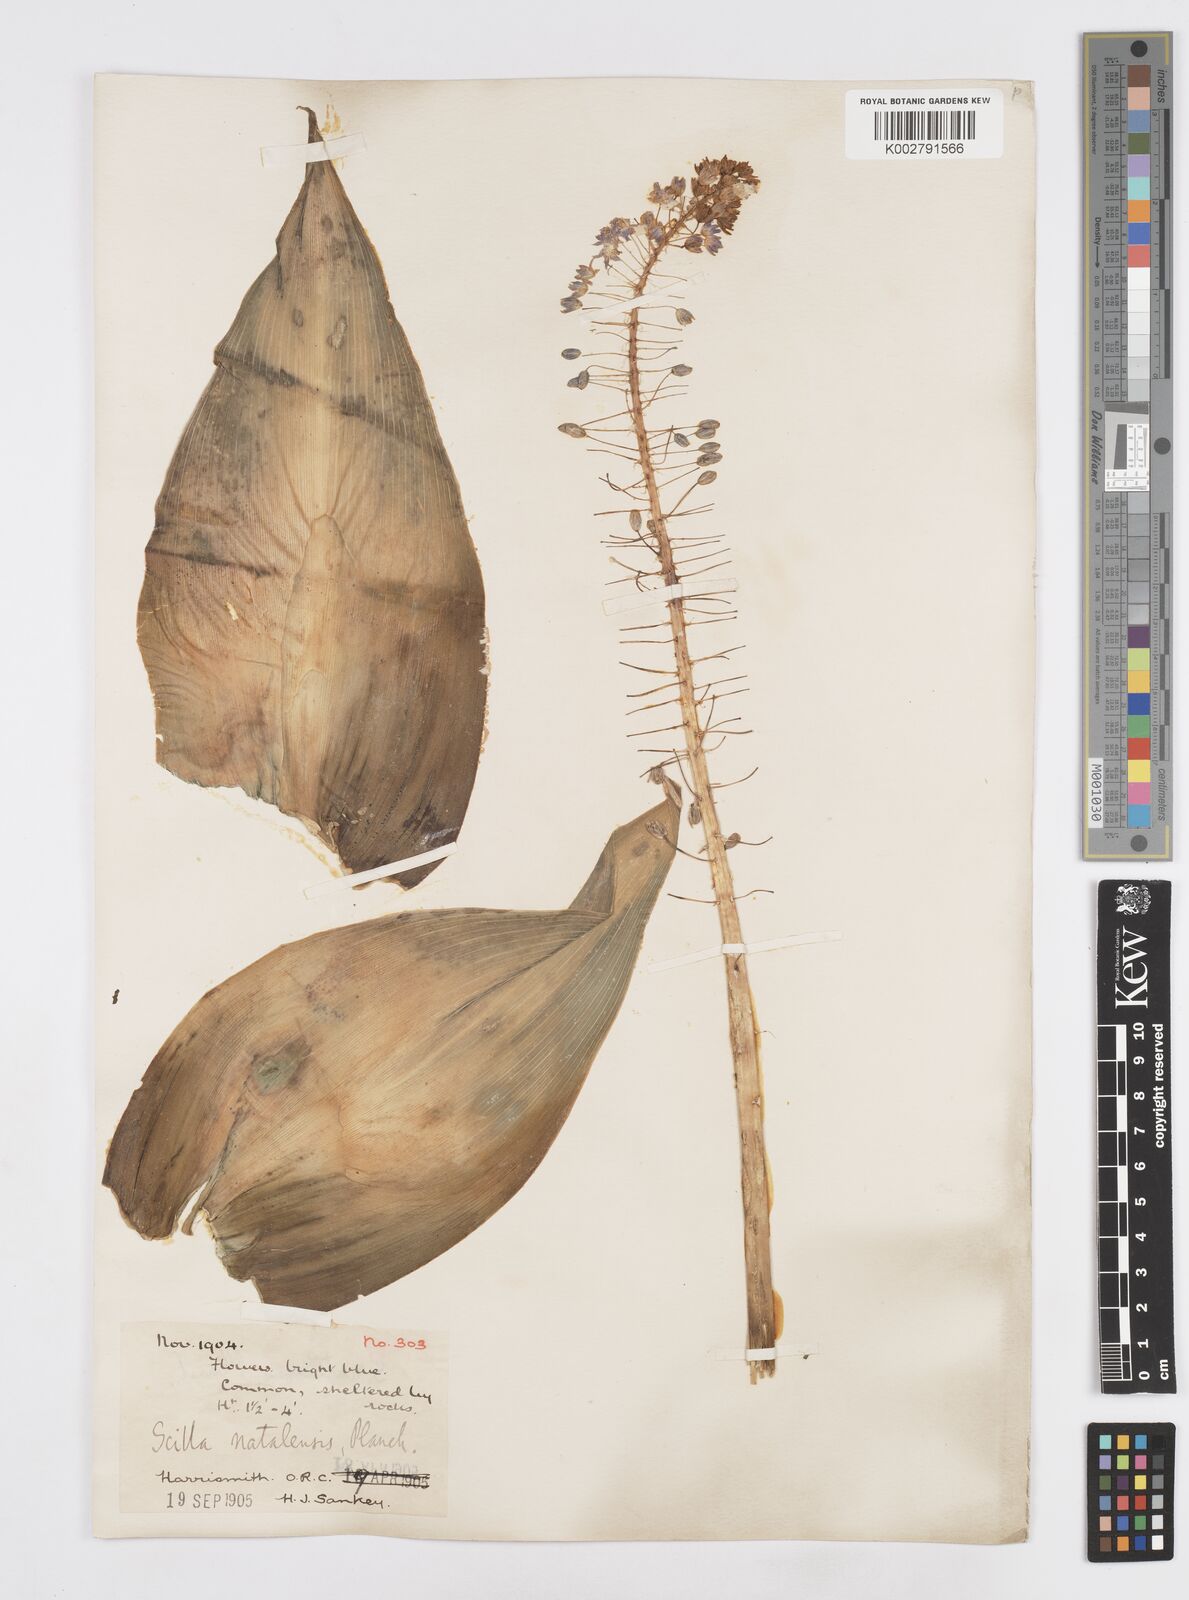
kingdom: Plantae
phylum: Tracheophyta
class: Liliopsida
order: Asparagales
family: Asparagaceae
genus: Merwilla
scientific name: Merwilla plumbea
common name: Blue-squill
